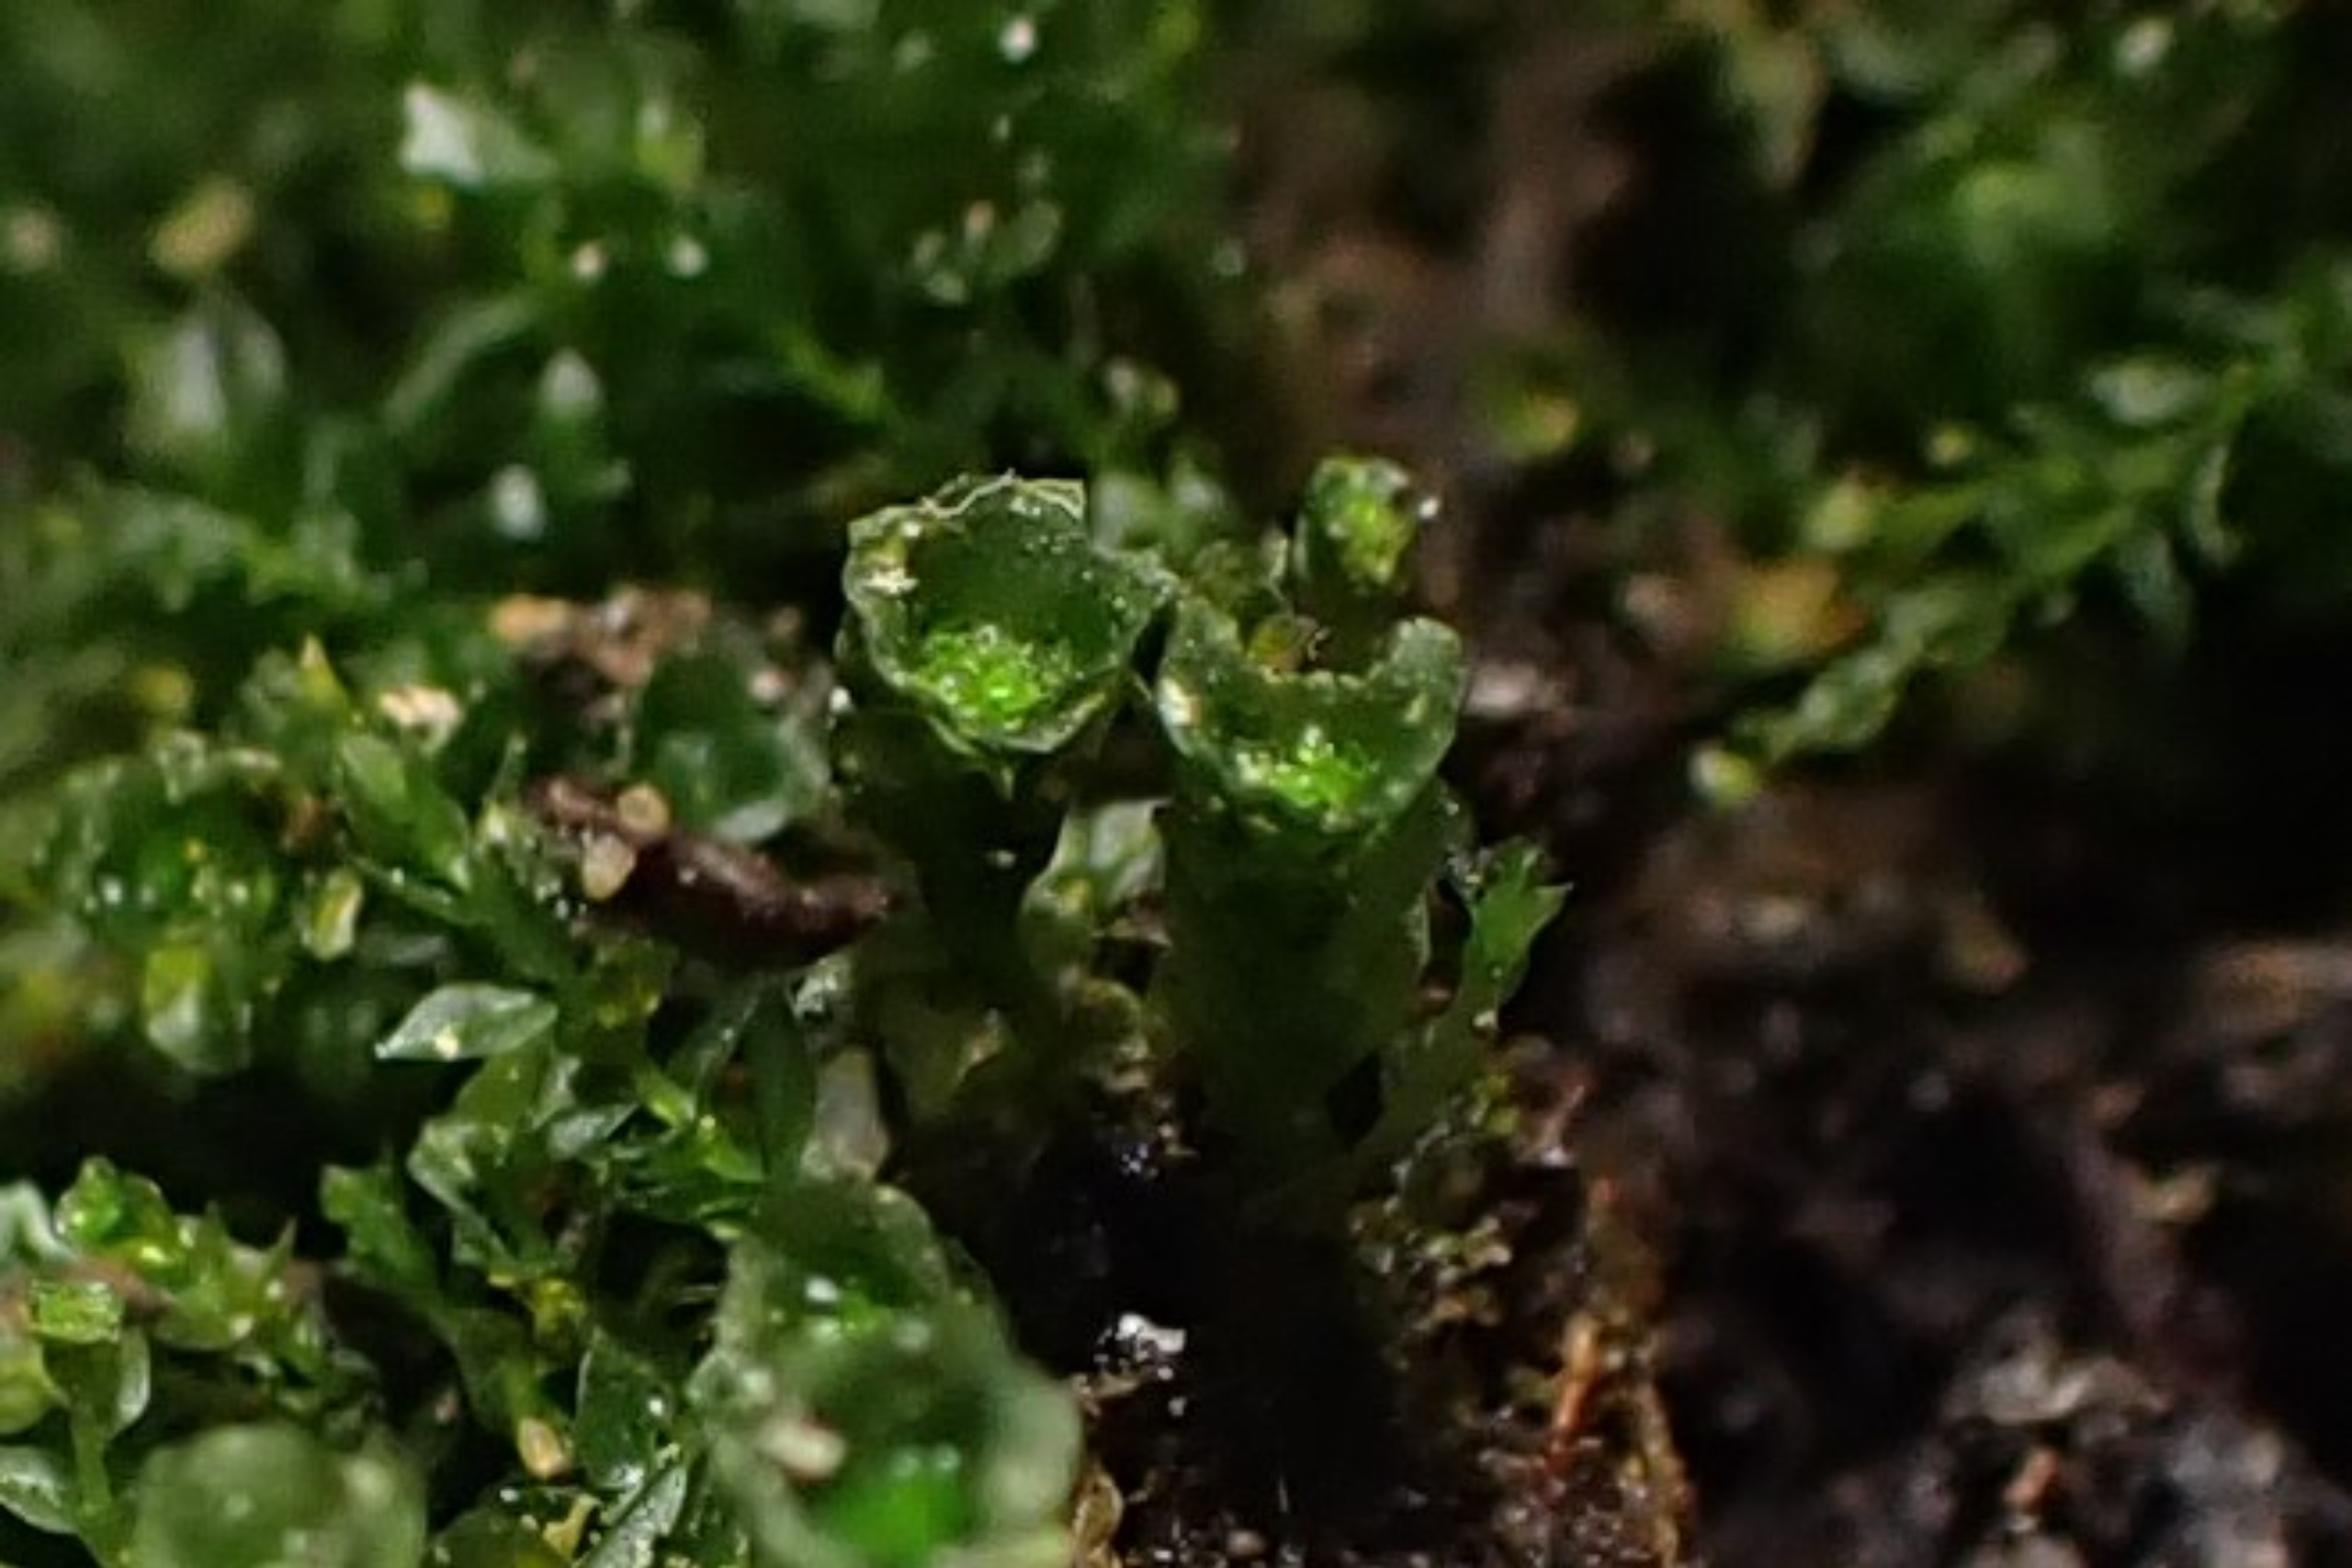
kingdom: Plantae
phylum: Bryophyta
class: Polytrichopsida
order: Tetraphidales
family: Tetraphidaceae
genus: Tetraphis
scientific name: Tetraphis pellucida
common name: Almindelig firtand
